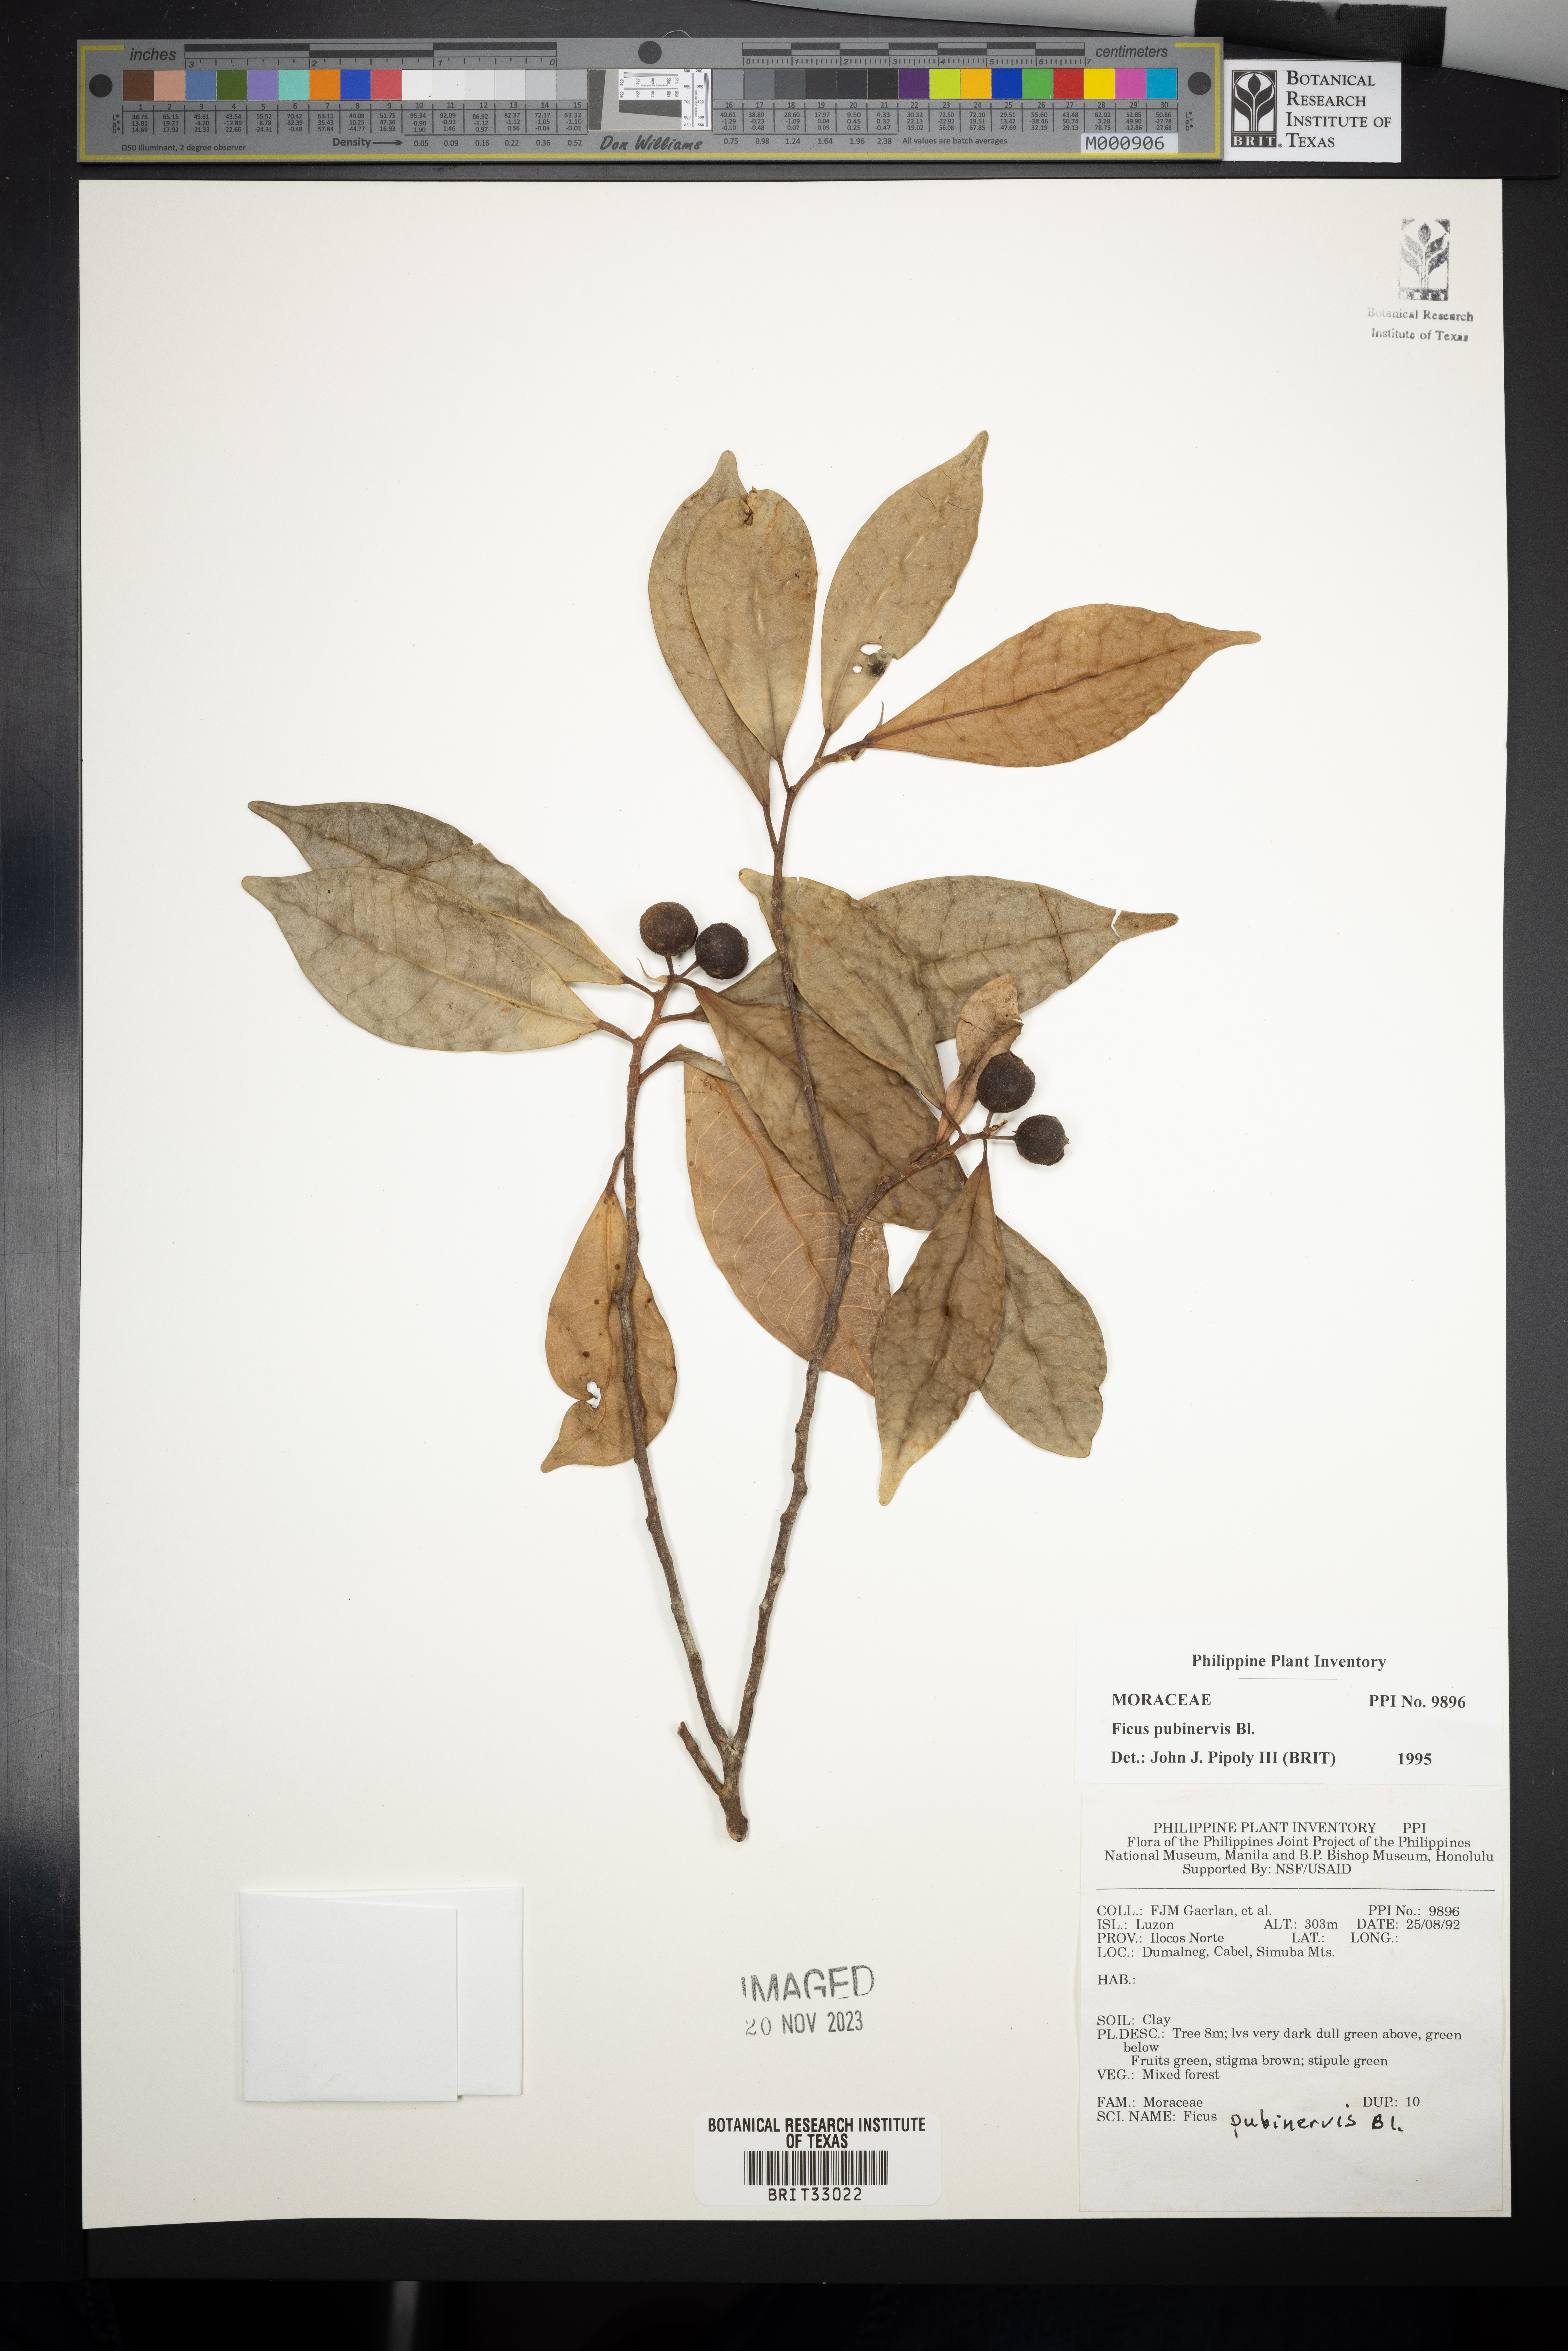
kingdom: Plantae
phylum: Tracheophyta
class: Magnoliopsida
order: Rosales
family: Moraceae
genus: Ficus
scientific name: Ficus nervosa
